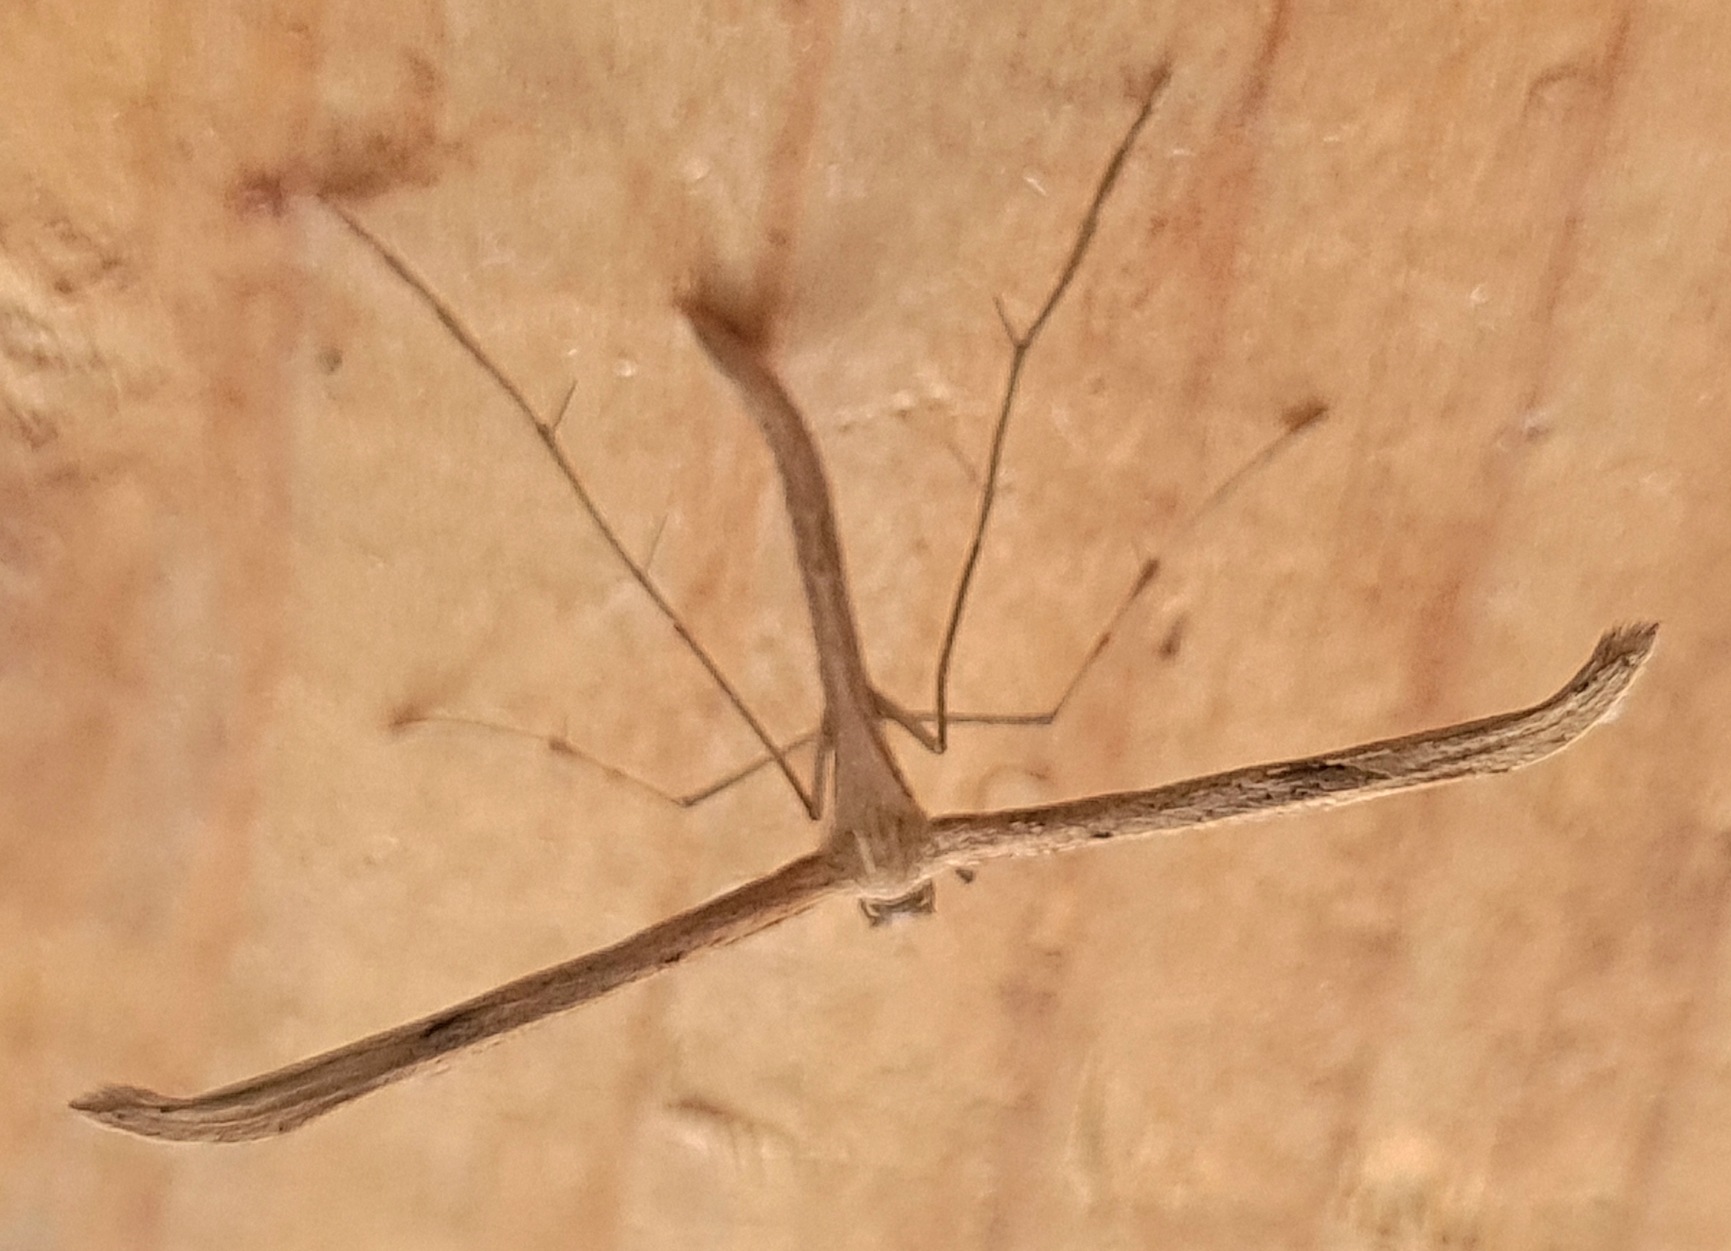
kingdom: Animalia
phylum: Arthropoda
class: Insecta
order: Lepidoptera
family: Pterophoridae
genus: Emmelina
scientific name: Emmelina monodactyla
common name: Snerlefjermøl
